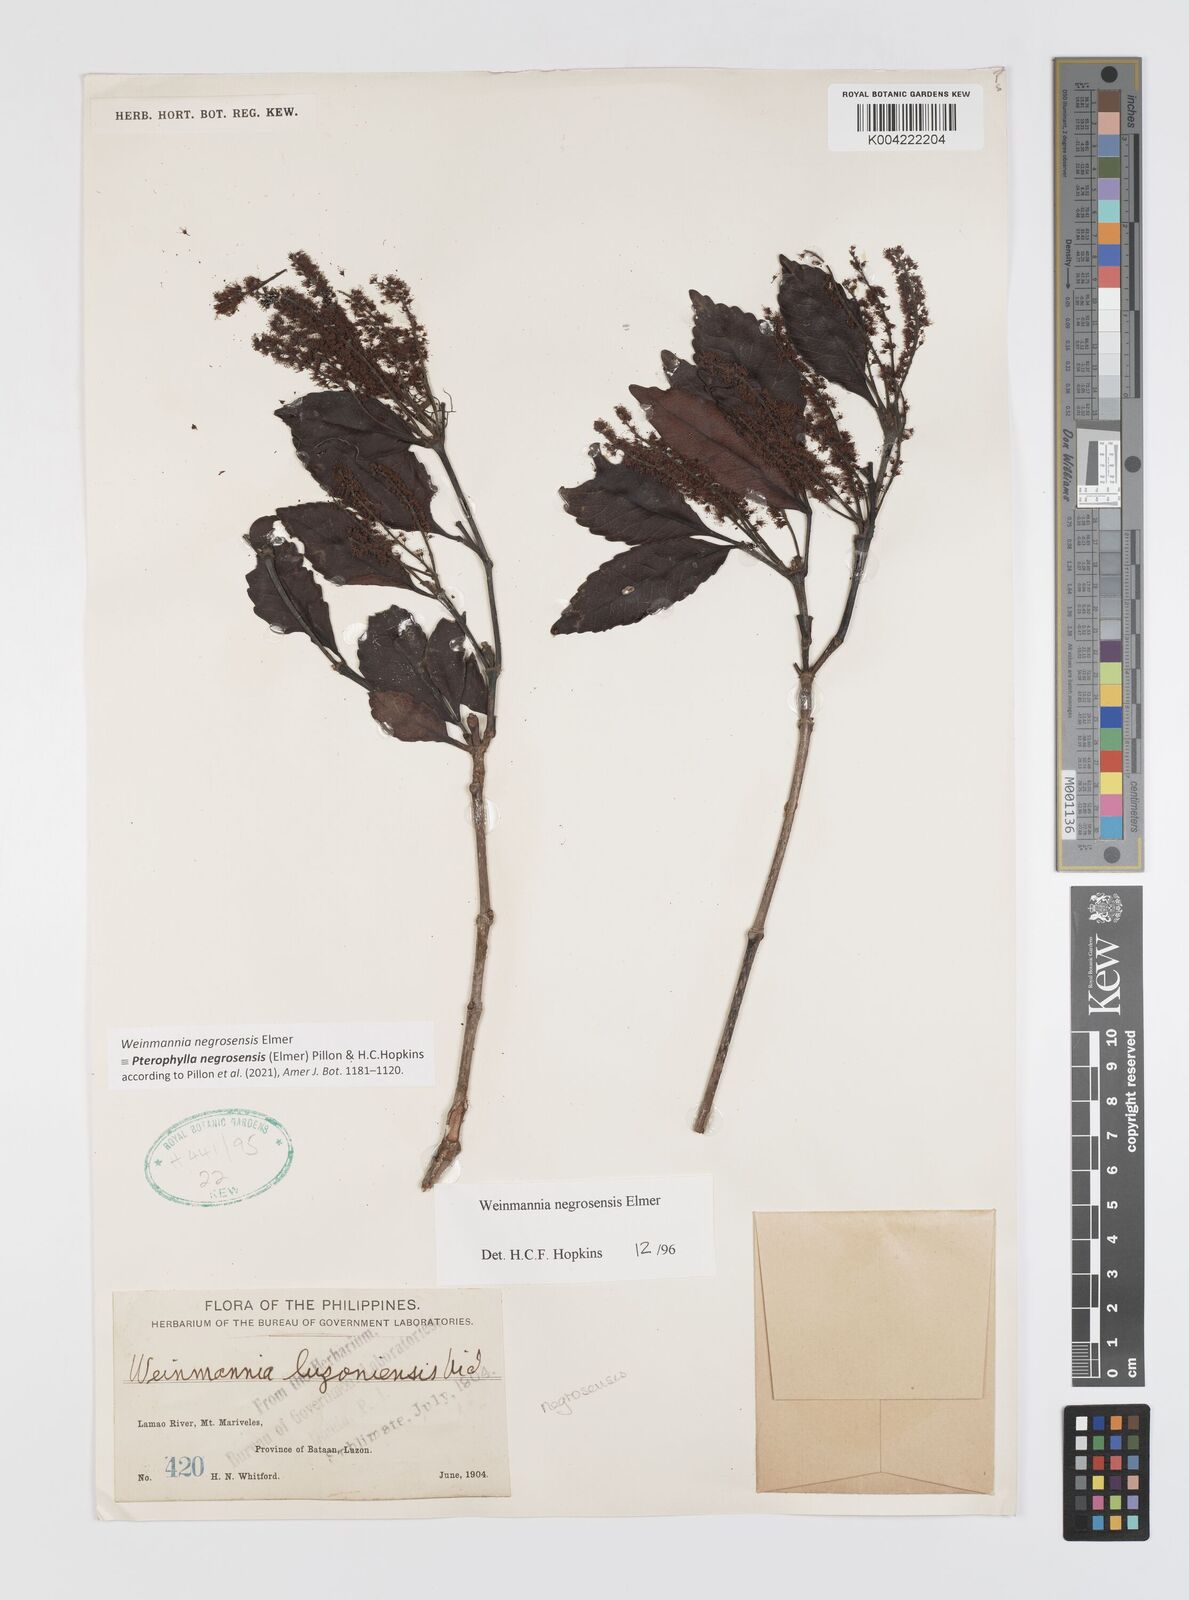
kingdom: Plantae
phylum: Tracheophyta
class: Magnoliopsida
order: Oxalidales
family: Cunoniaceae
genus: Pterophylla
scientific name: Pterophylla negrosensis
